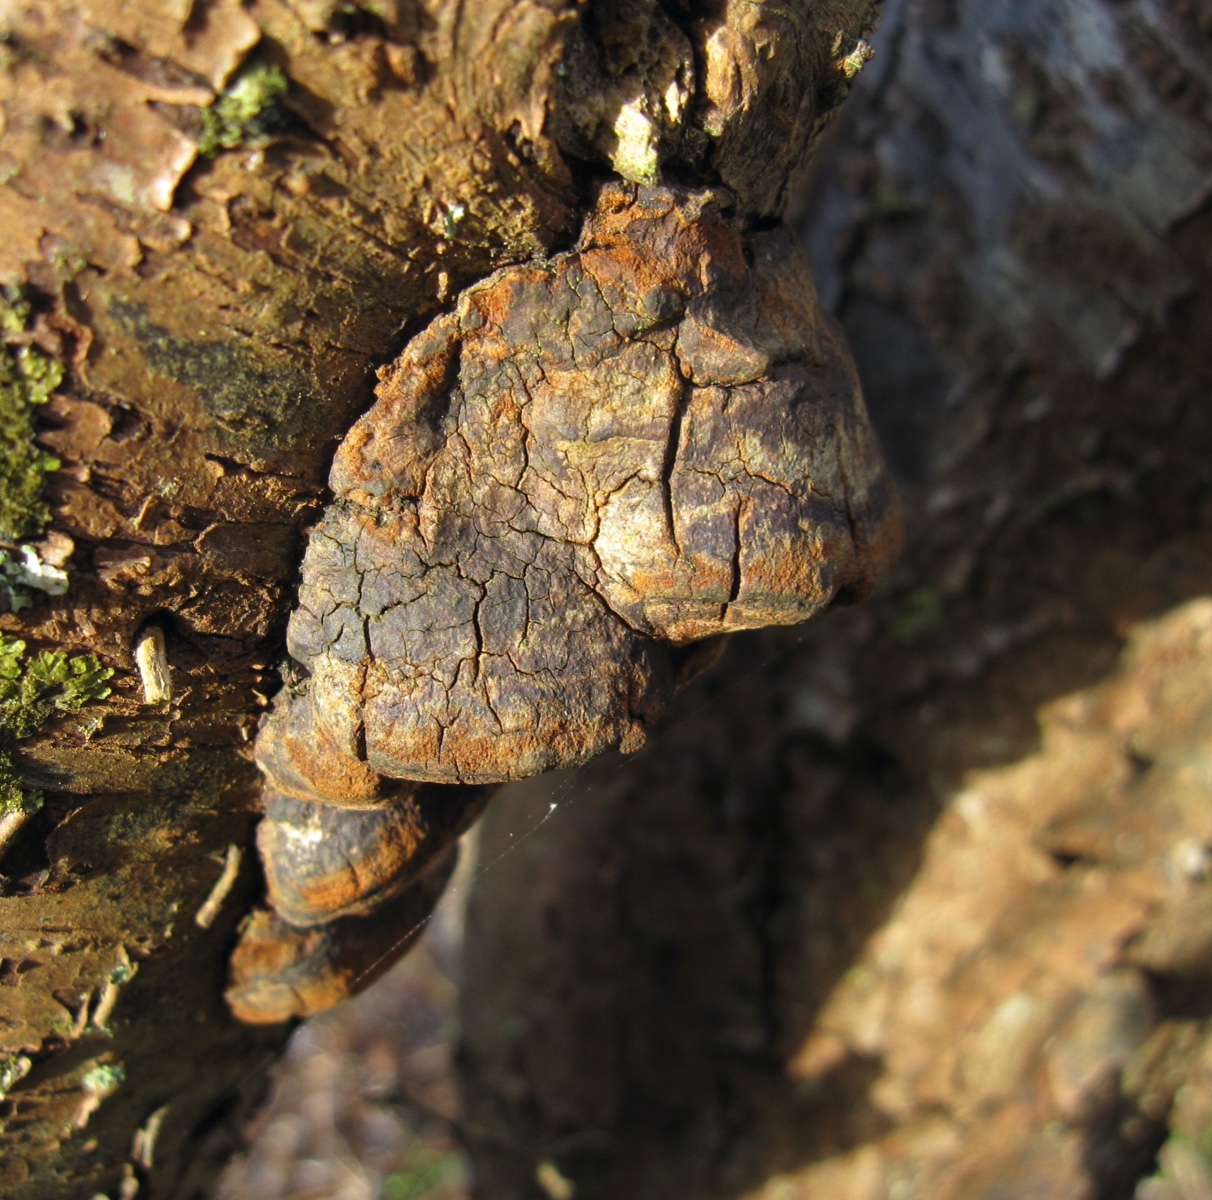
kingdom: Fungi
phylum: Basidiomycota
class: Agaricomycetes
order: Hymenochaetales
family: Hymenochaetaceae
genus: Phellinus
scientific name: Phellinus pomaceus
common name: blomme-ildporesvamp
